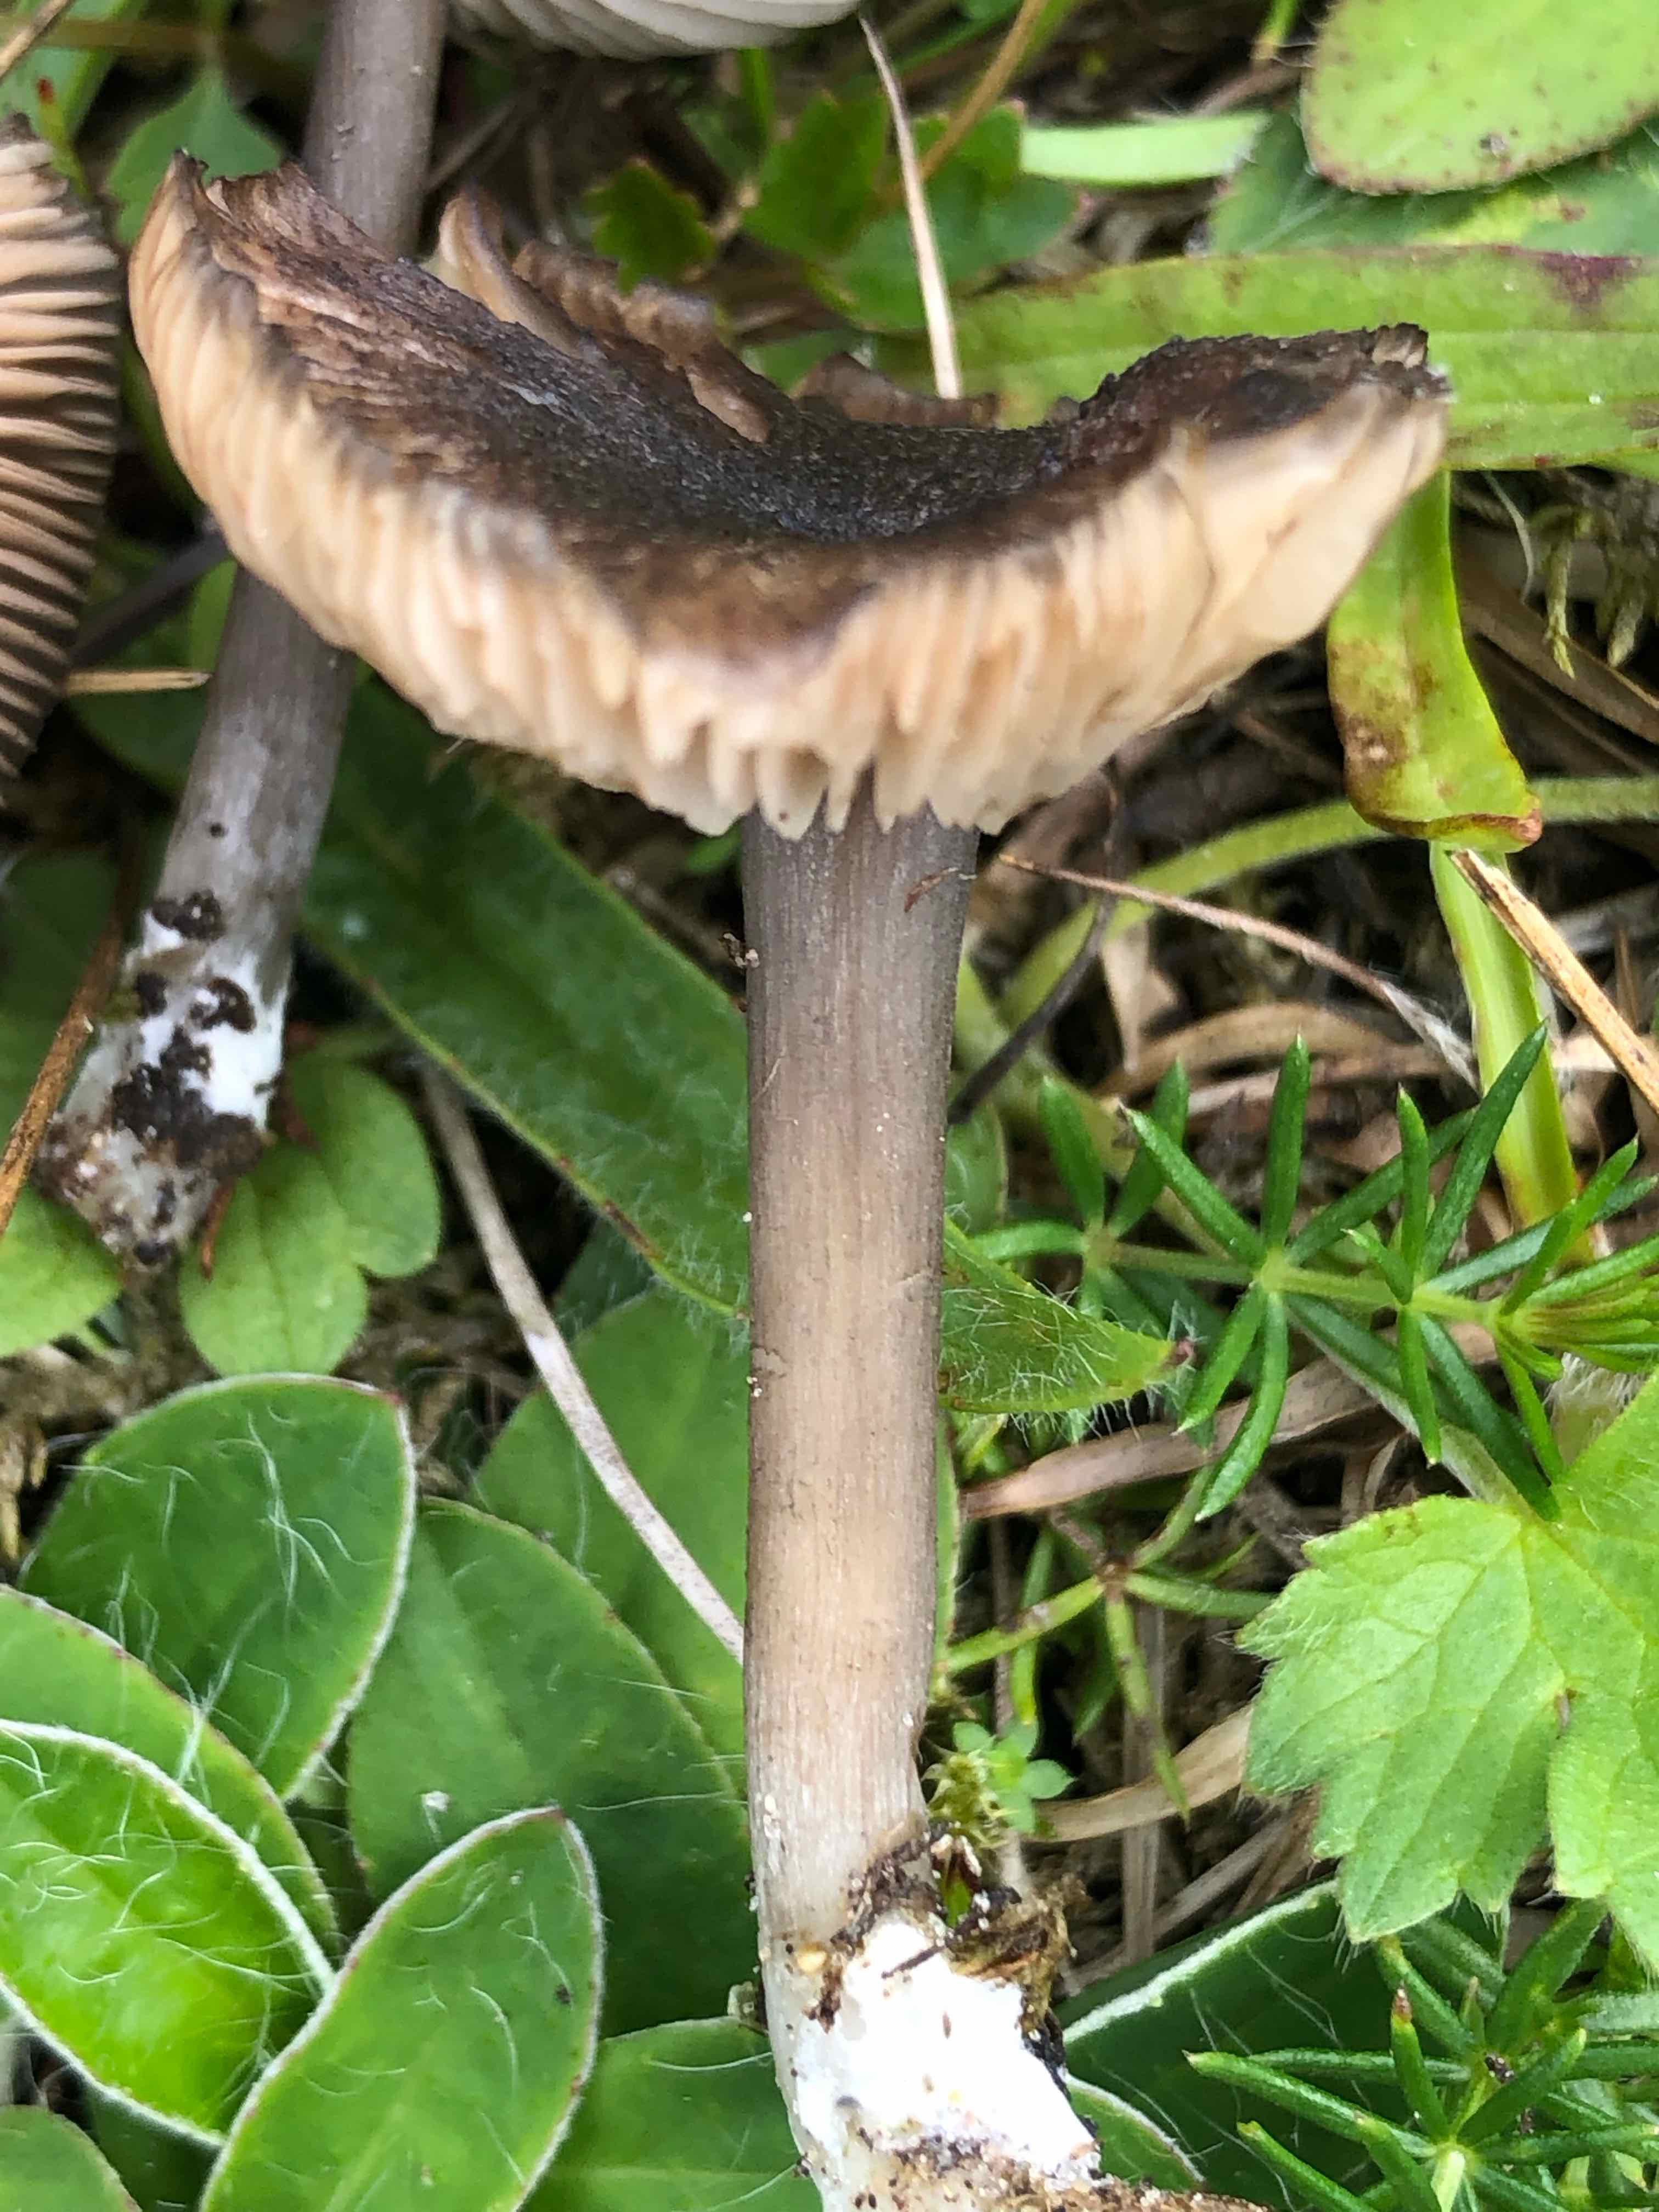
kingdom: Fungi
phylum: Basidiomycota
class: Agaricomycetes
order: Agaricales
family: Entolomataceae
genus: Entoloma
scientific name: Entoloma
